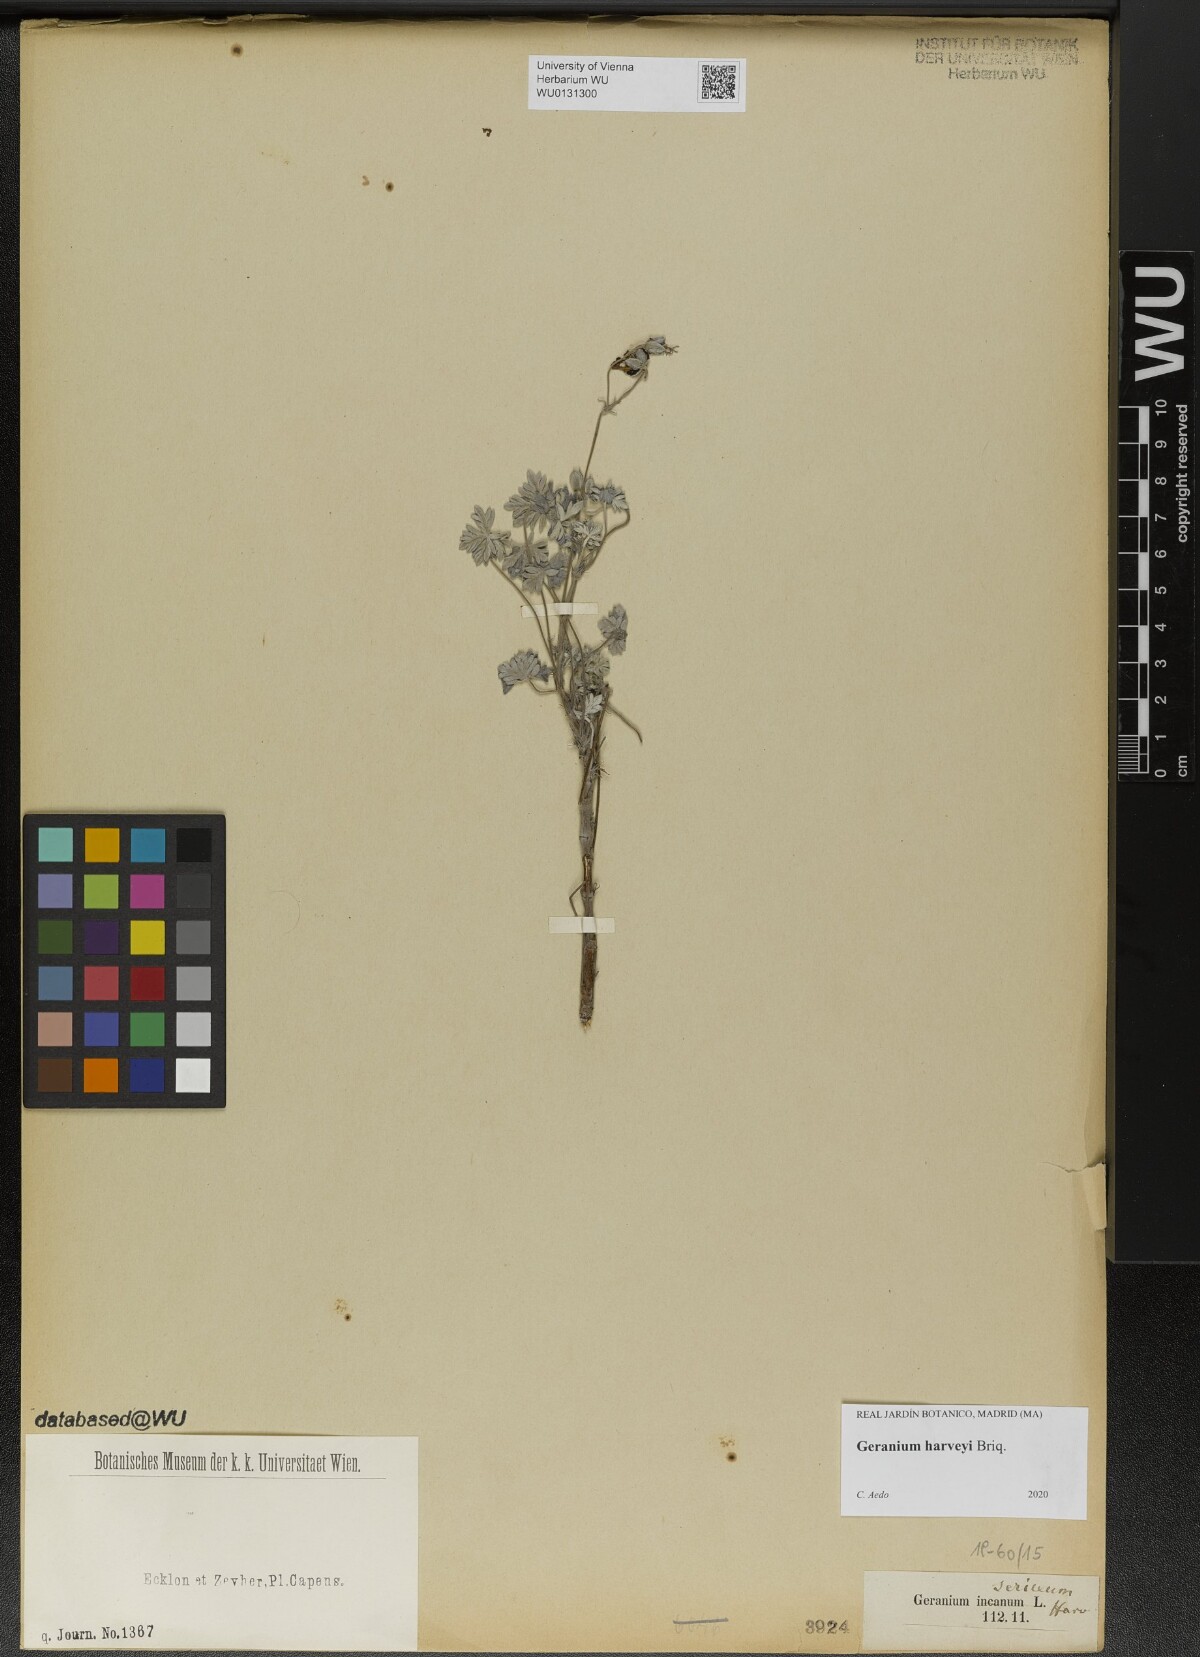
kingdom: Plantae
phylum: Tracheophyta
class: Magnoliopsida
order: Geraniales
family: Geraniaceae
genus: Geranium
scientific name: Geranium harveyi
